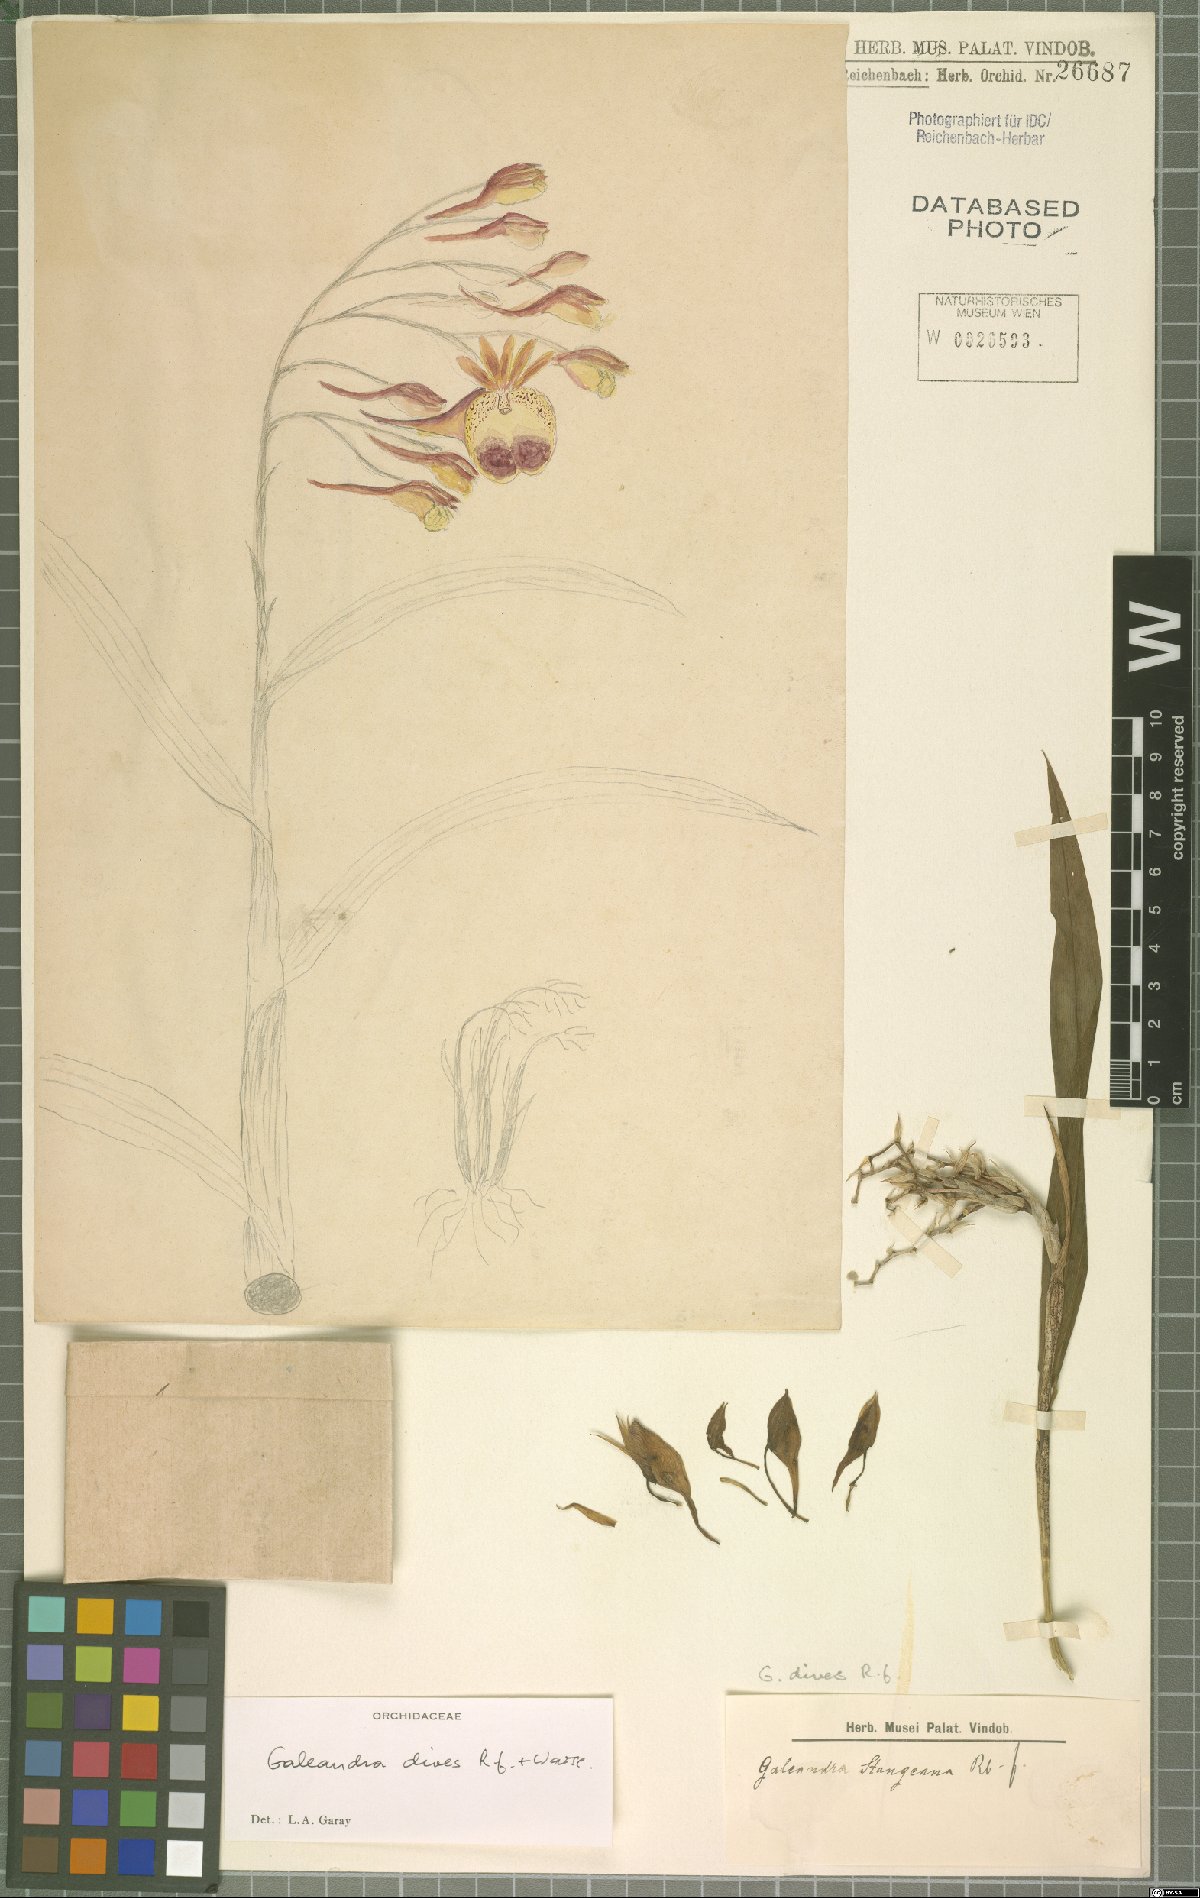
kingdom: Plantae
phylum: Tracheophyta
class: Liliopsida
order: Asparagales
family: Orchidaceae
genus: Galeandra
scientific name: Galeandra dives
